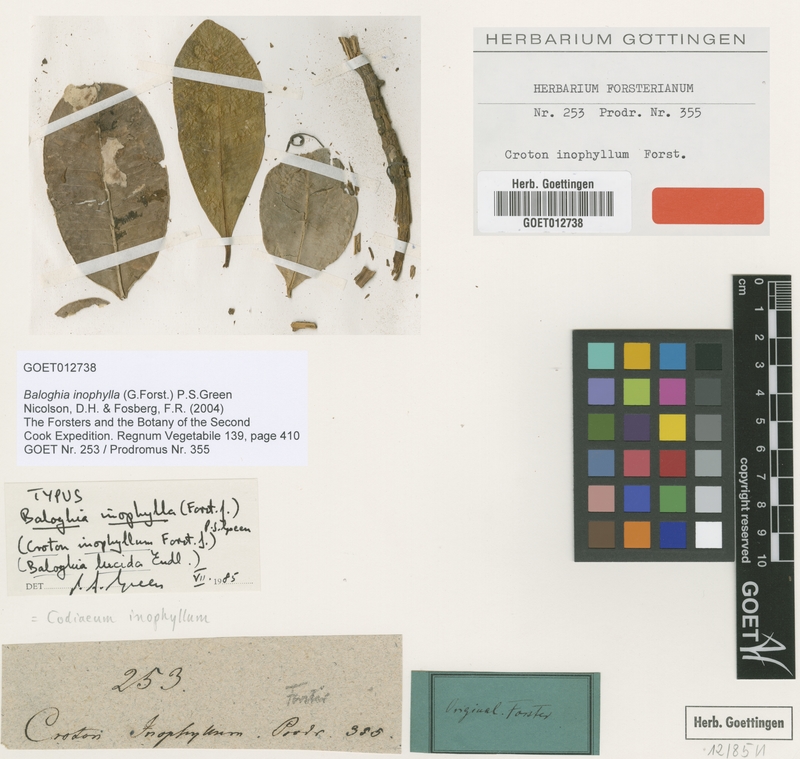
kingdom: Plantae
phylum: Tracheophyta
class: Magnoliopsida
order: Malpighiales
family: Euphorbiaceae
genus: Baloghia
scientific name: Baloghia inophylla
